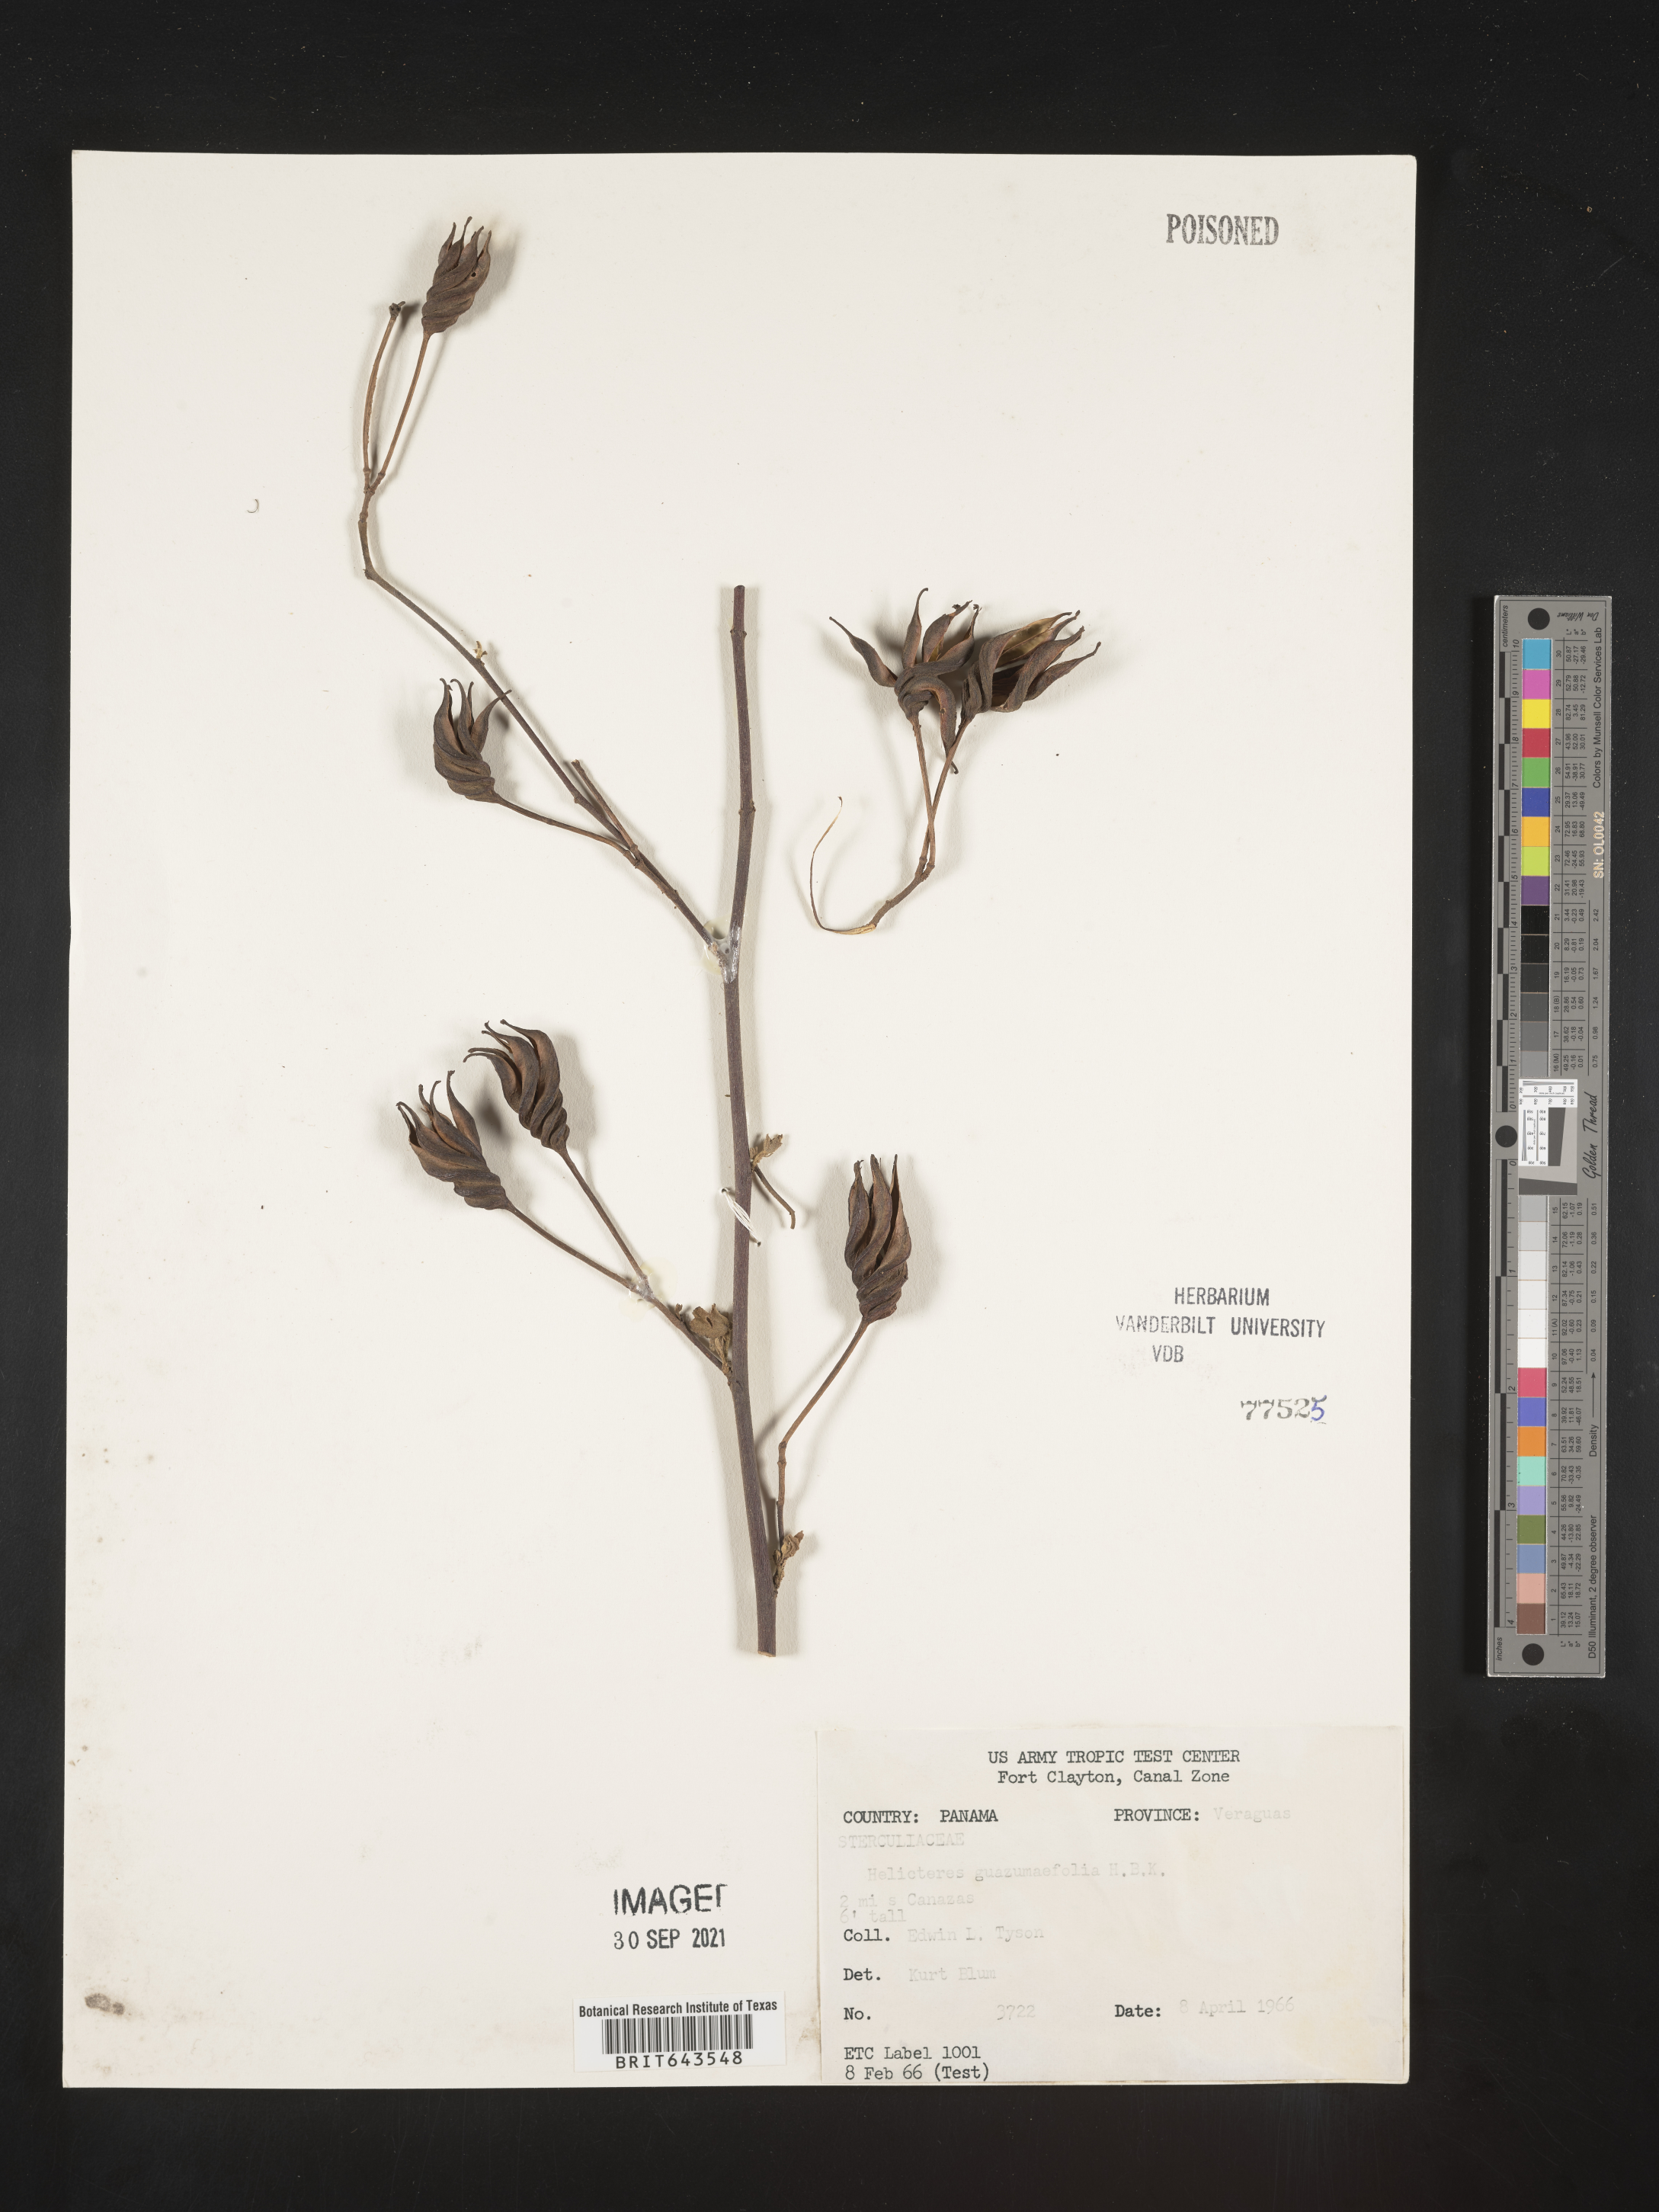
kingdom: Plantae
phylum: Tracheophyta
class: Magnoliopsida
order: Malvales
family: Malvaceae
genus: Helicteres
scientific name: Helicteres
